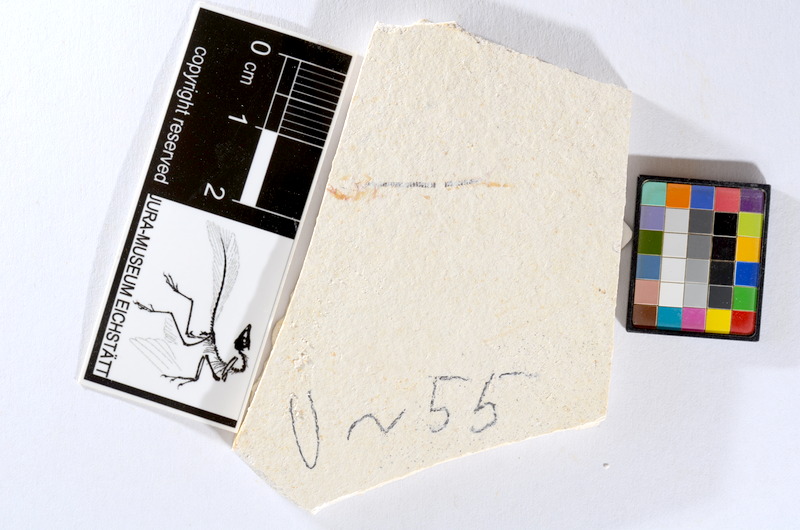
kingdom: Animalia
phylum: Chordata
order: Salmoniformes
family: Orthogonikleithridae
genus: Orthogonikleithrus
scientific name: Orthogonikleithrus hoelli
